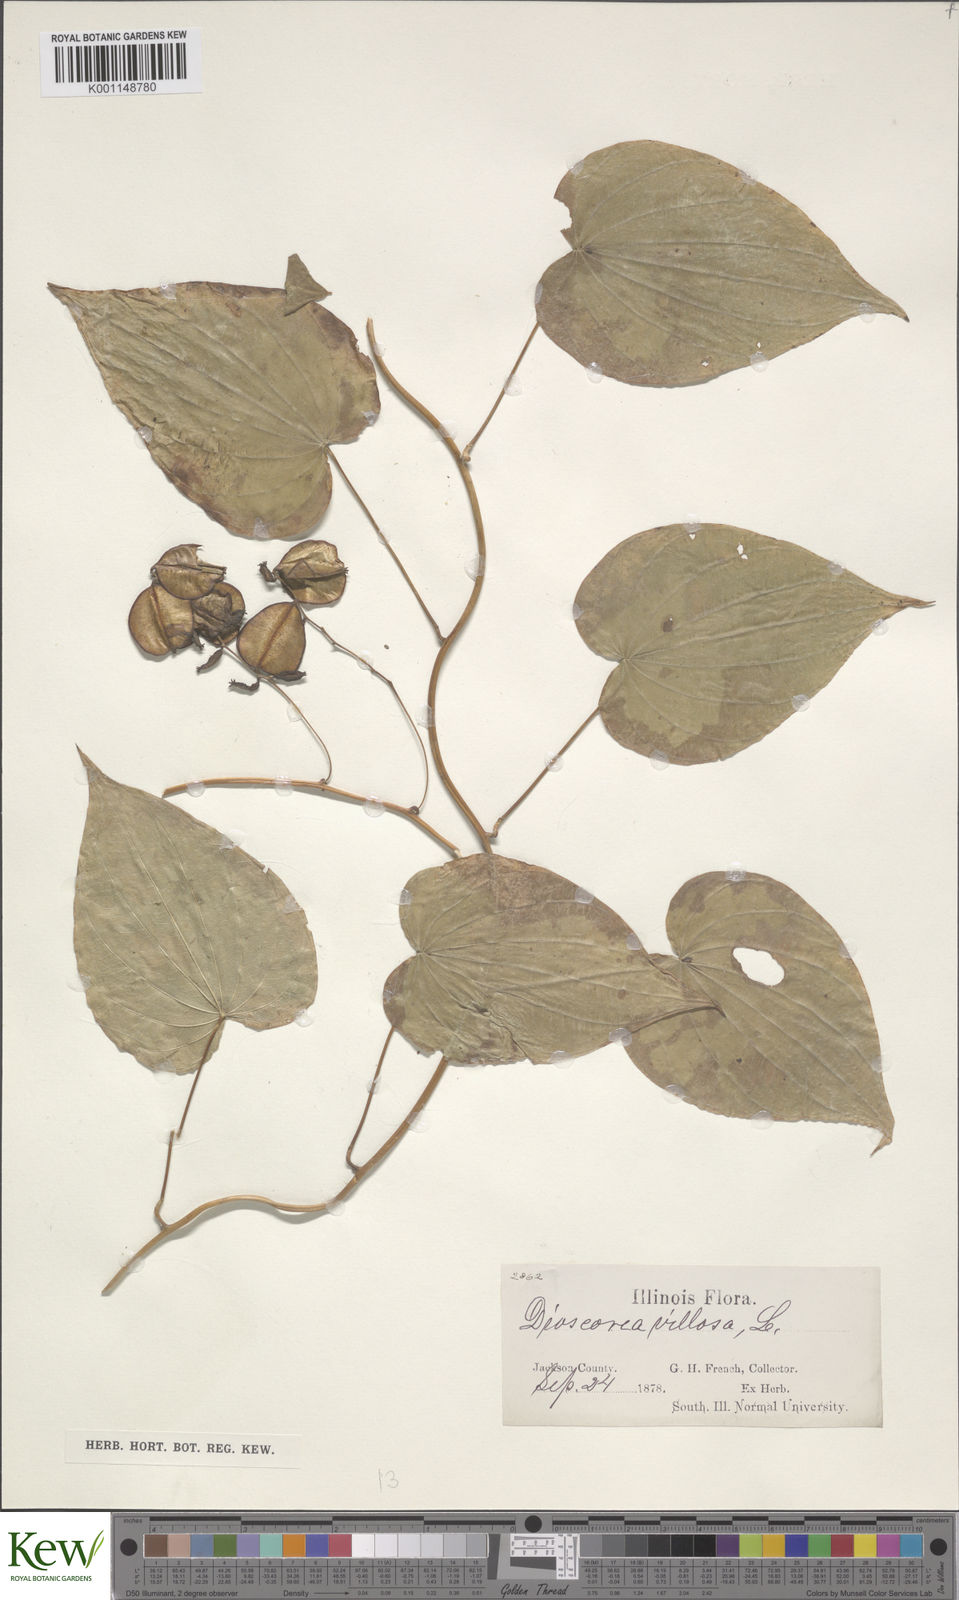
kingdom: Plantae
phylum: Tracheophyta
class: Liliopsida
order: Dioscoreales
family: Dioscoreaceae
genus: Dioscorea
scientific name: Dioscorea villosa
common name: Wild yam
